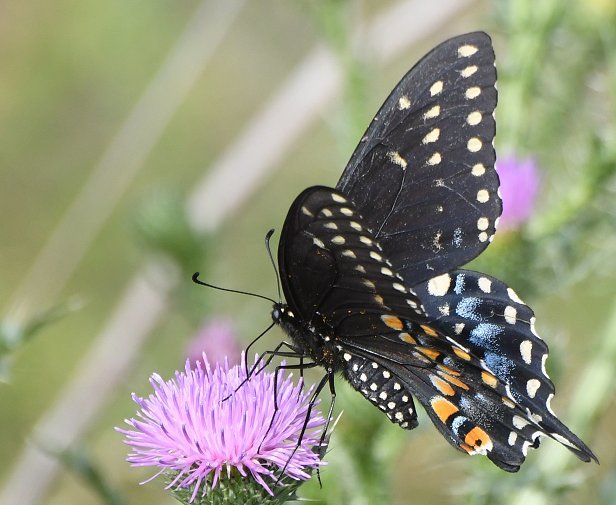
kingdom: Animalia
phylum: Arthropoda
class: Insecta
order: Lepidoptera
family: Papilionidae
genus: Papilio
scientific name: Papilio polyxenes
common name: Black Swallowtail
